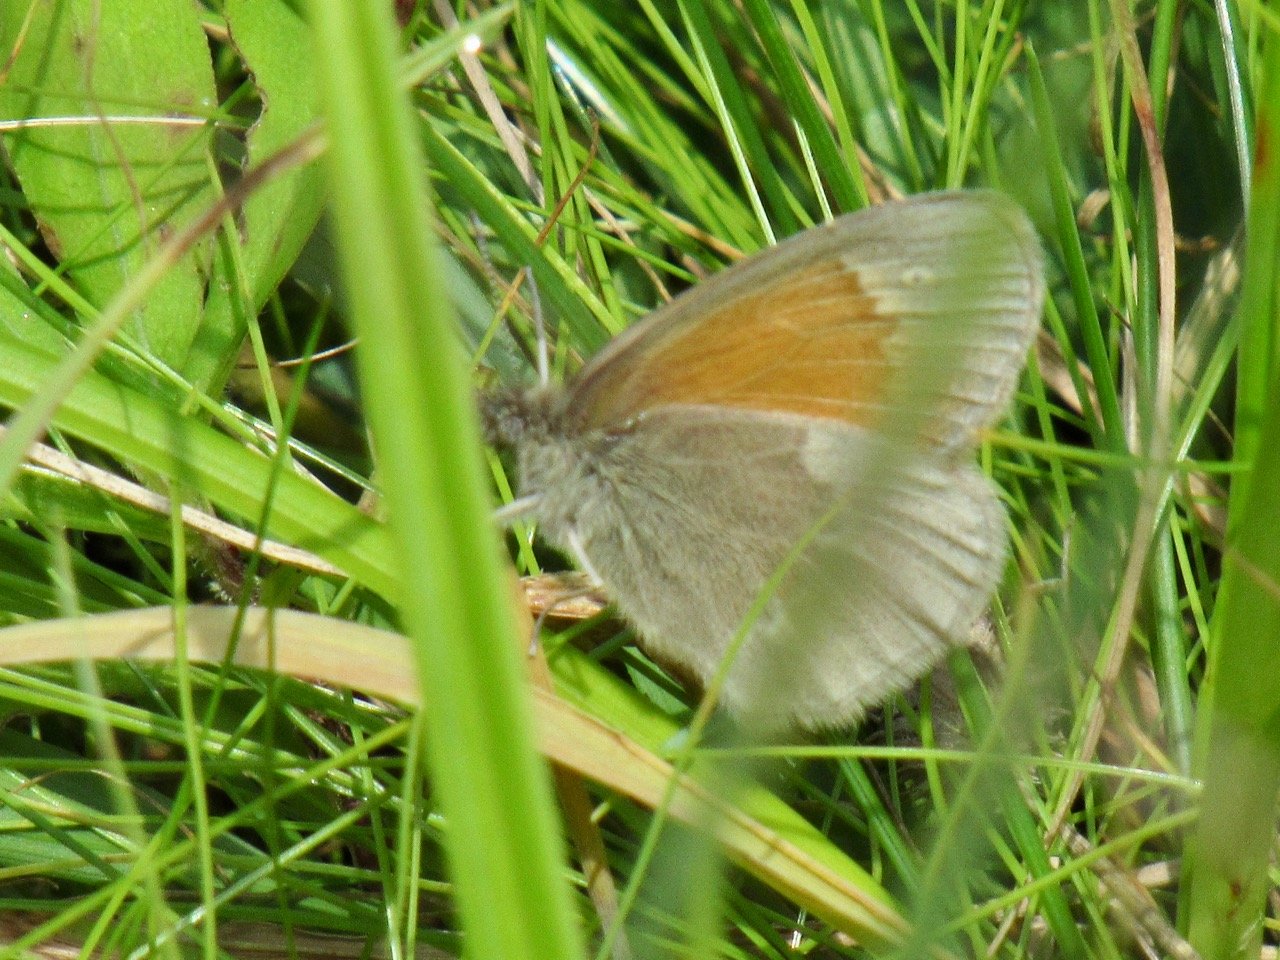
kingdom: Animalia
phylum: Arthropoda
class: Insecta
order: Lepidoptera
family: Nymphalidae
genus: Coenonympha
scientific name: Coenonympha tullia
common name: Large Heath
